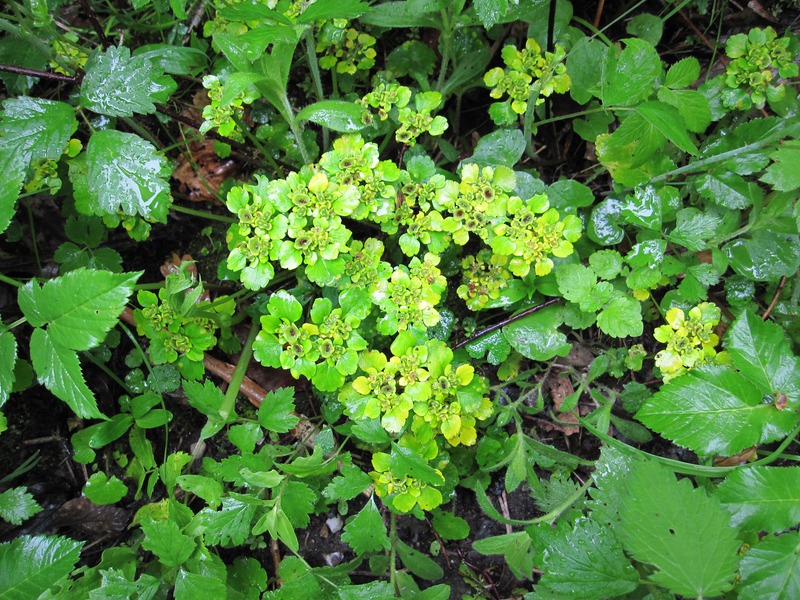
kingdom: Fungi
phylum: Basidiomycota
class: Exobasidiomycetes
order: Entylomatales
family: Entylomataceae
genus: Entyloma
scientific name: Entyloma chrysosplenii
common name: Saxifrage smut
